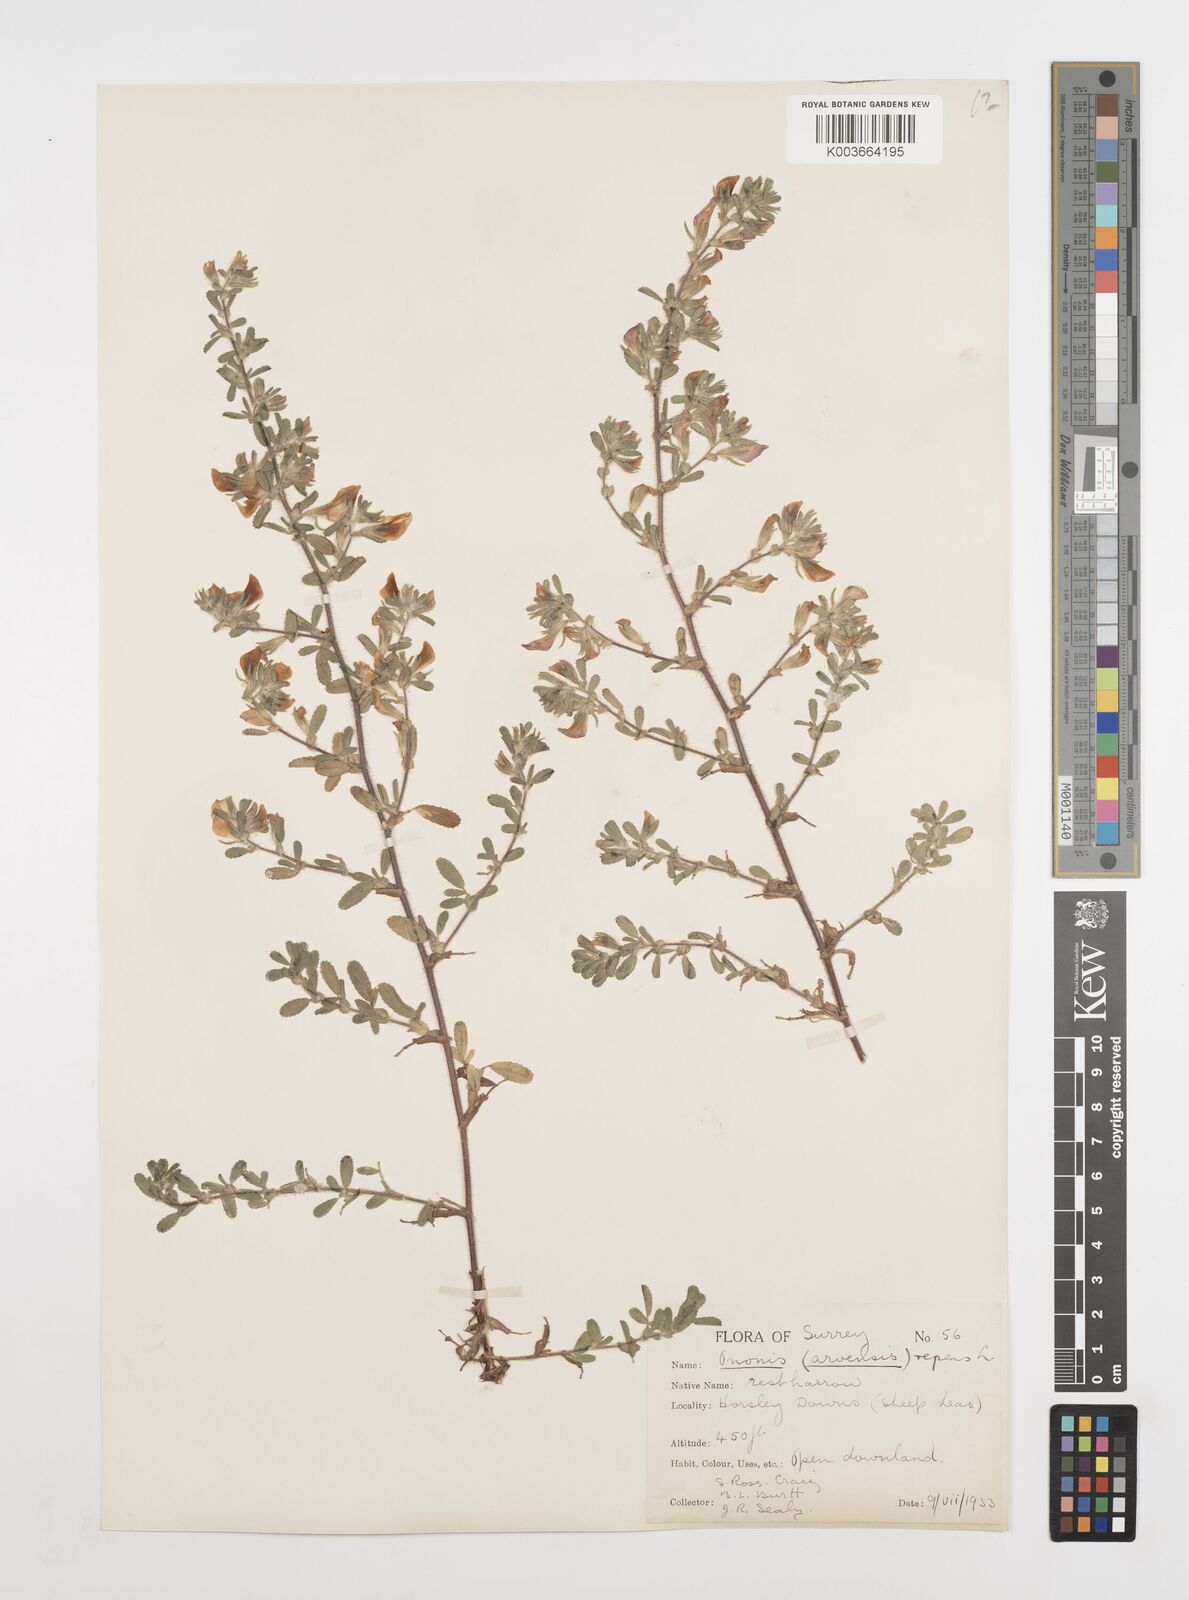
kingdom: Plantae
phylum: Tracheophyta
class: Magnoliopsida
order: Fabales
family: Fabaceae
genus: Ononis
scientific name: Ononis spinosa
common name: Spiny restharrow
